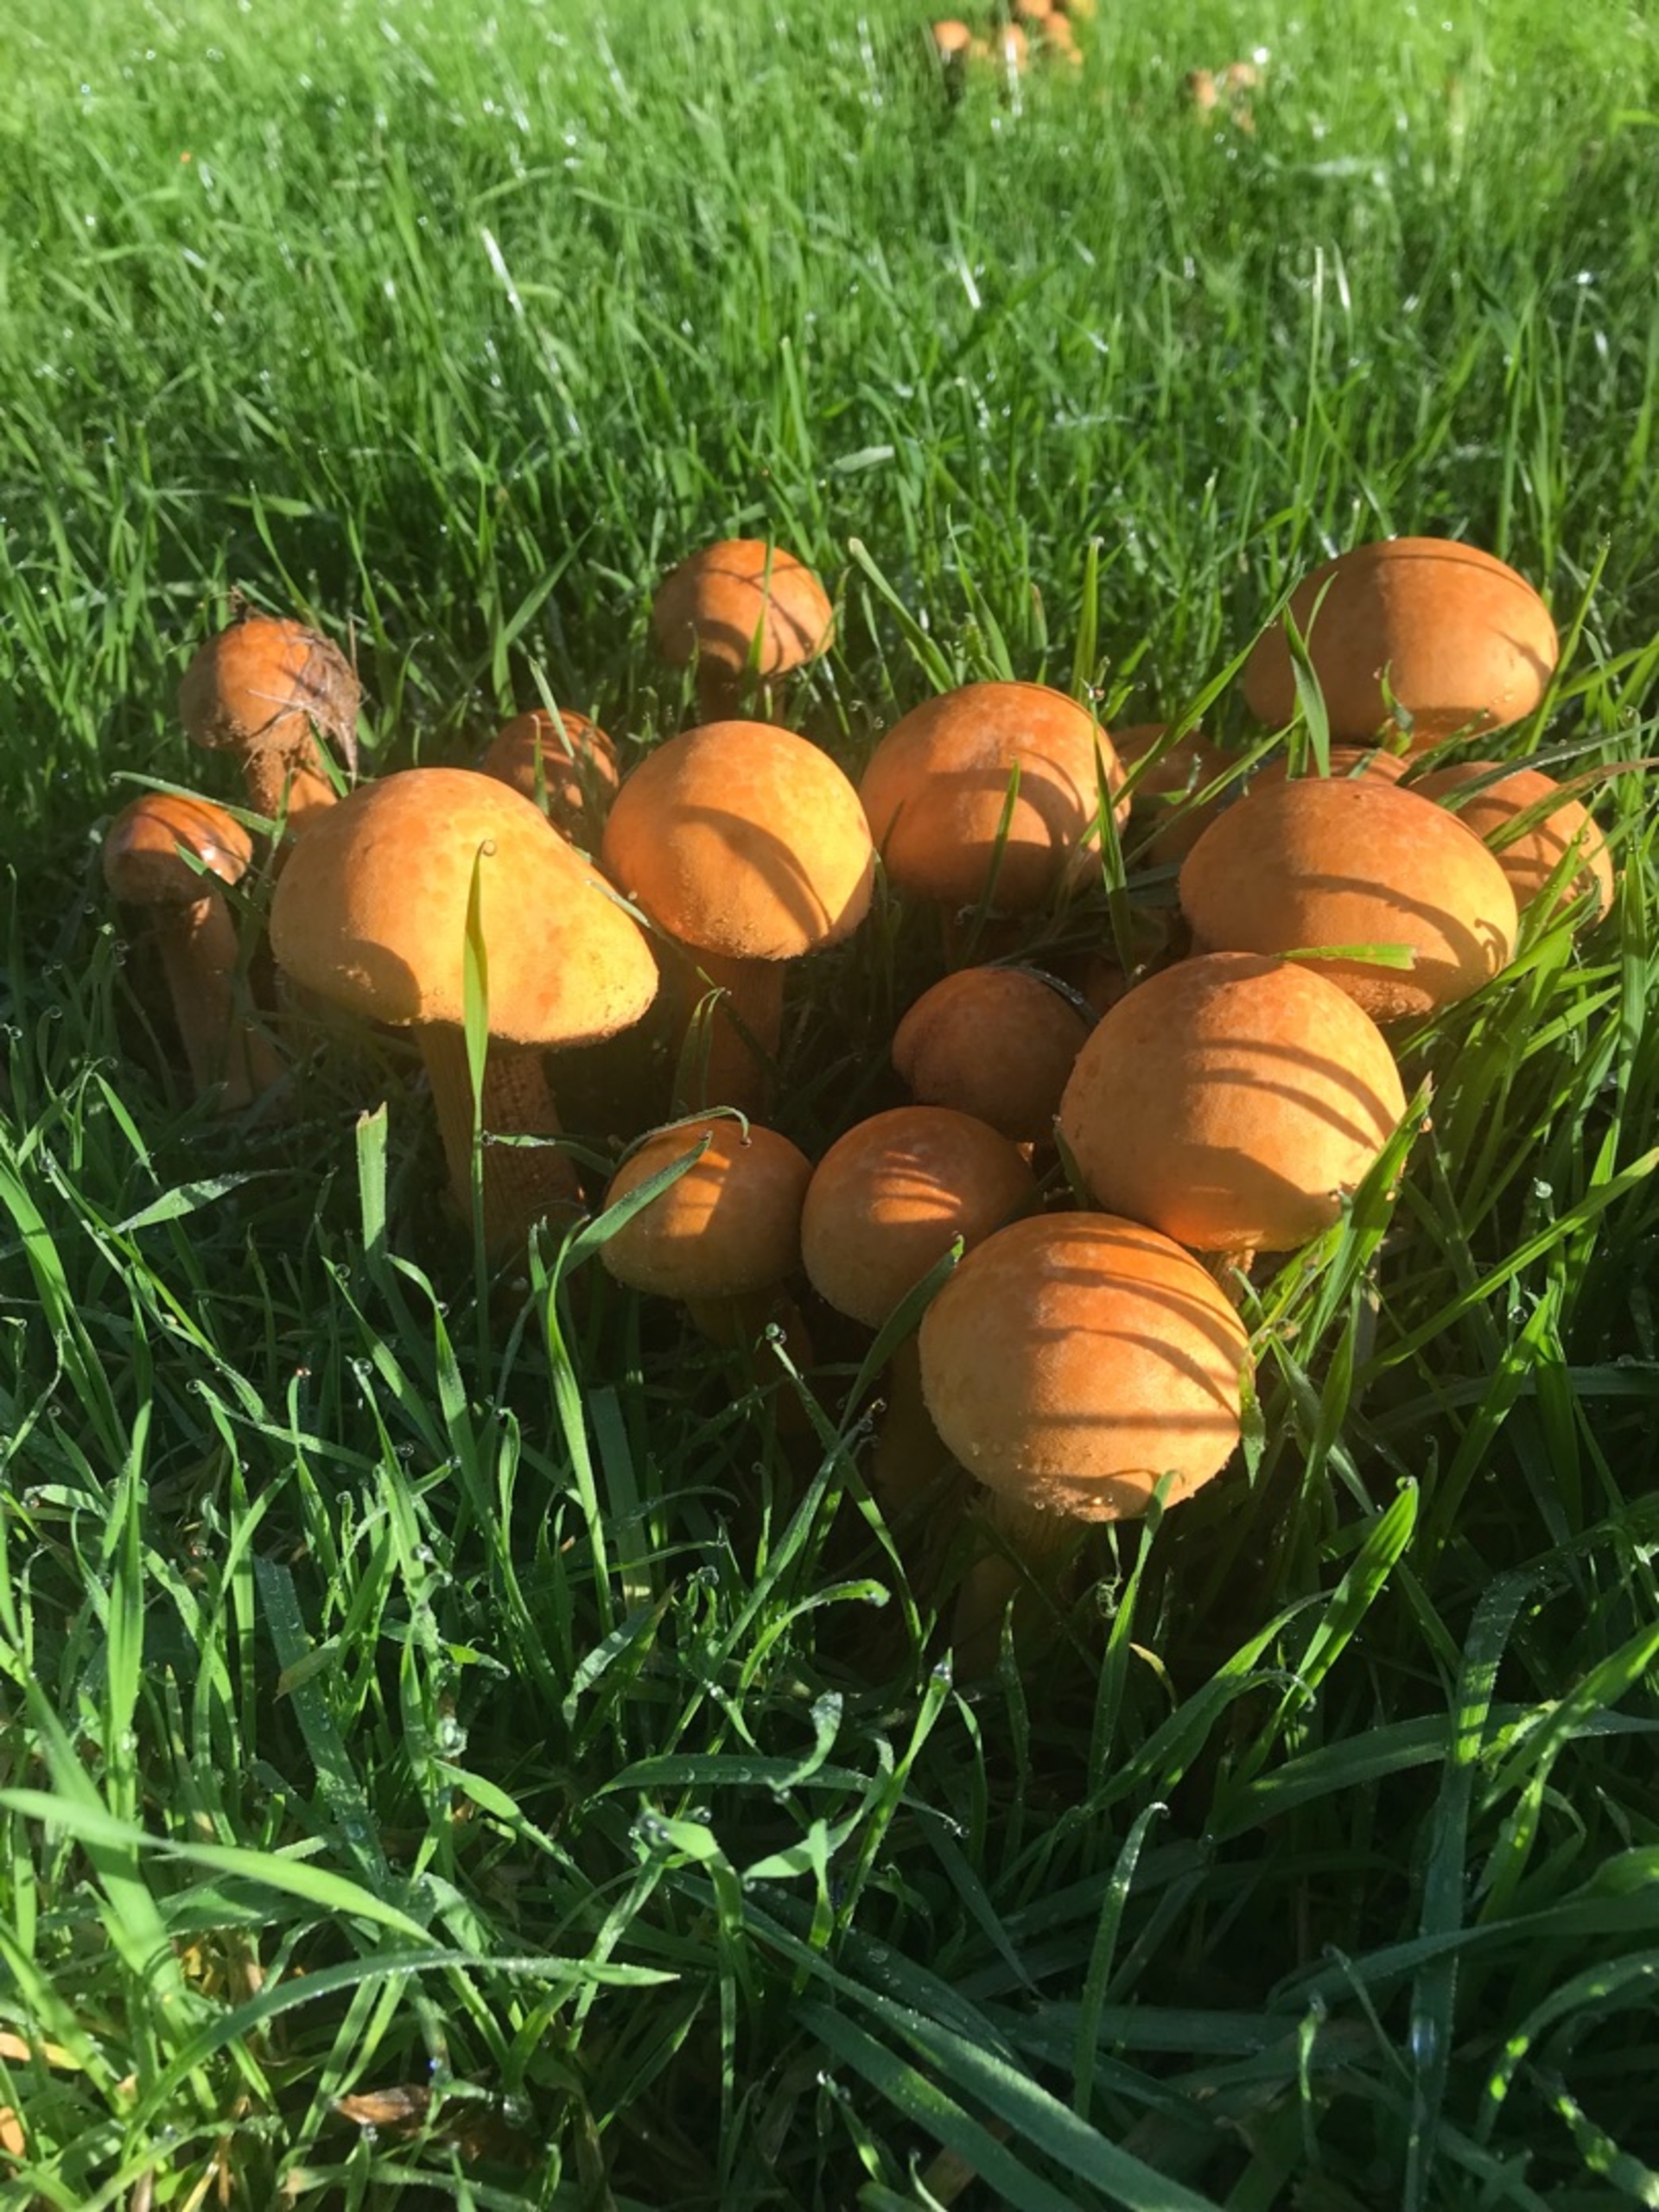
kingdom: Fungi
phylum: Basidiomycota
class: Agaricomycetes
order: Agaricales
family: Tricholomataceae
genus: Phaeolepiota
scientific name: Phaeolepiota aurea
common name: Gyldenhat
